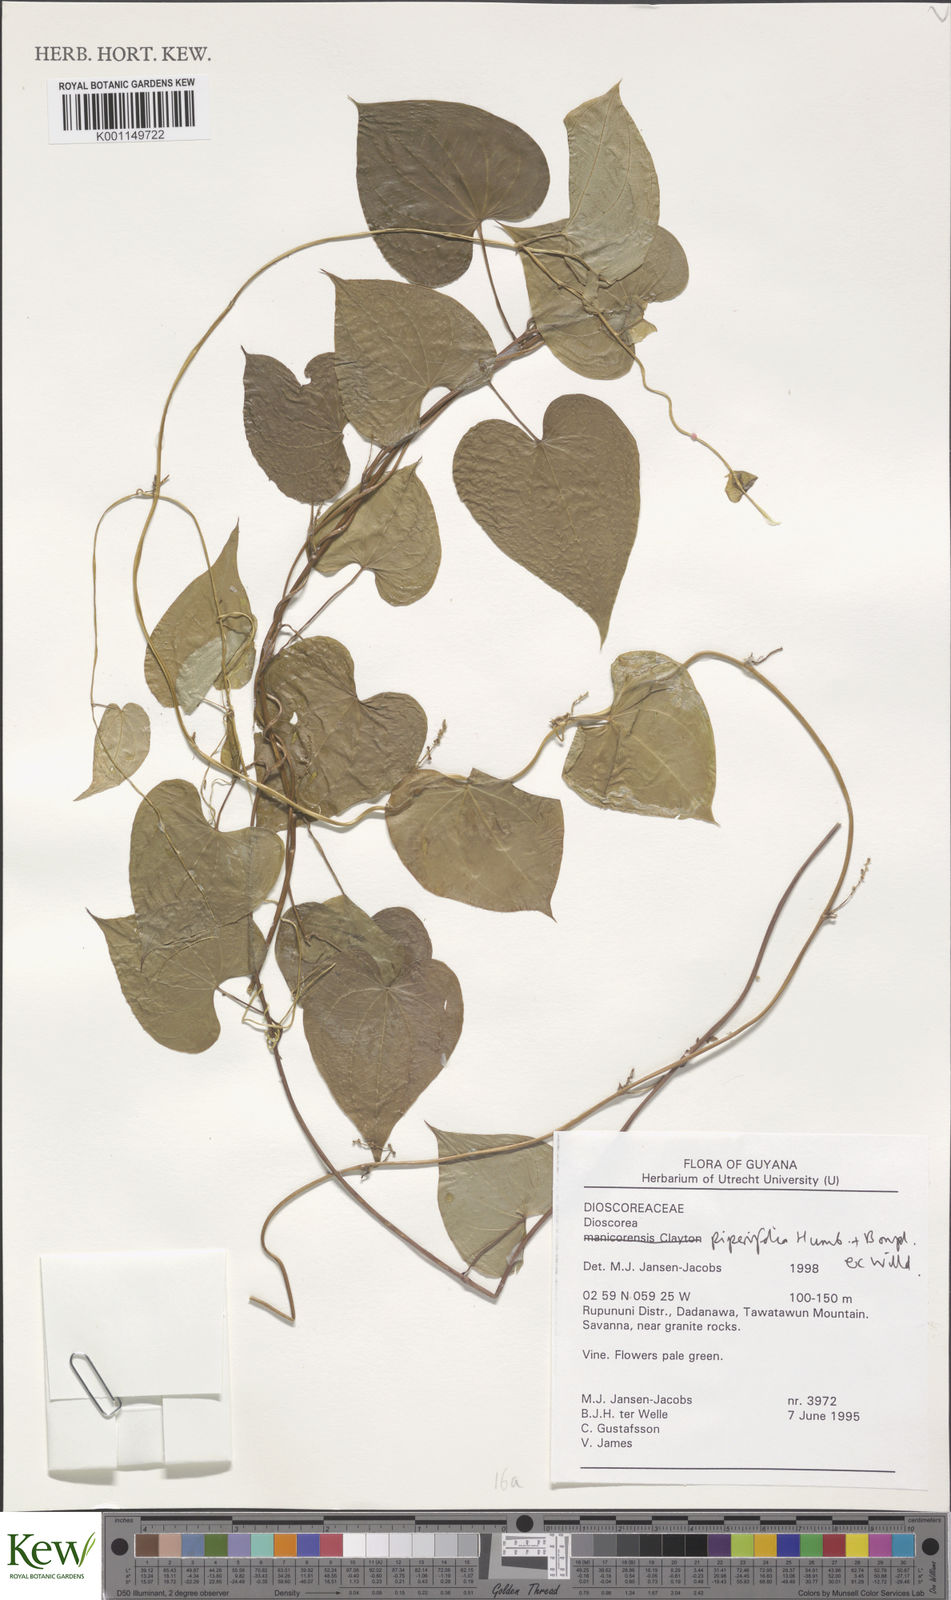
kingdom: Plantae
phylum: Tracheophyta
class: Liliopsida
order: Dioscoreales
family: Dioscoreaceae
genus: Dioscorea
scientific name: Dioscorea piperifolia
